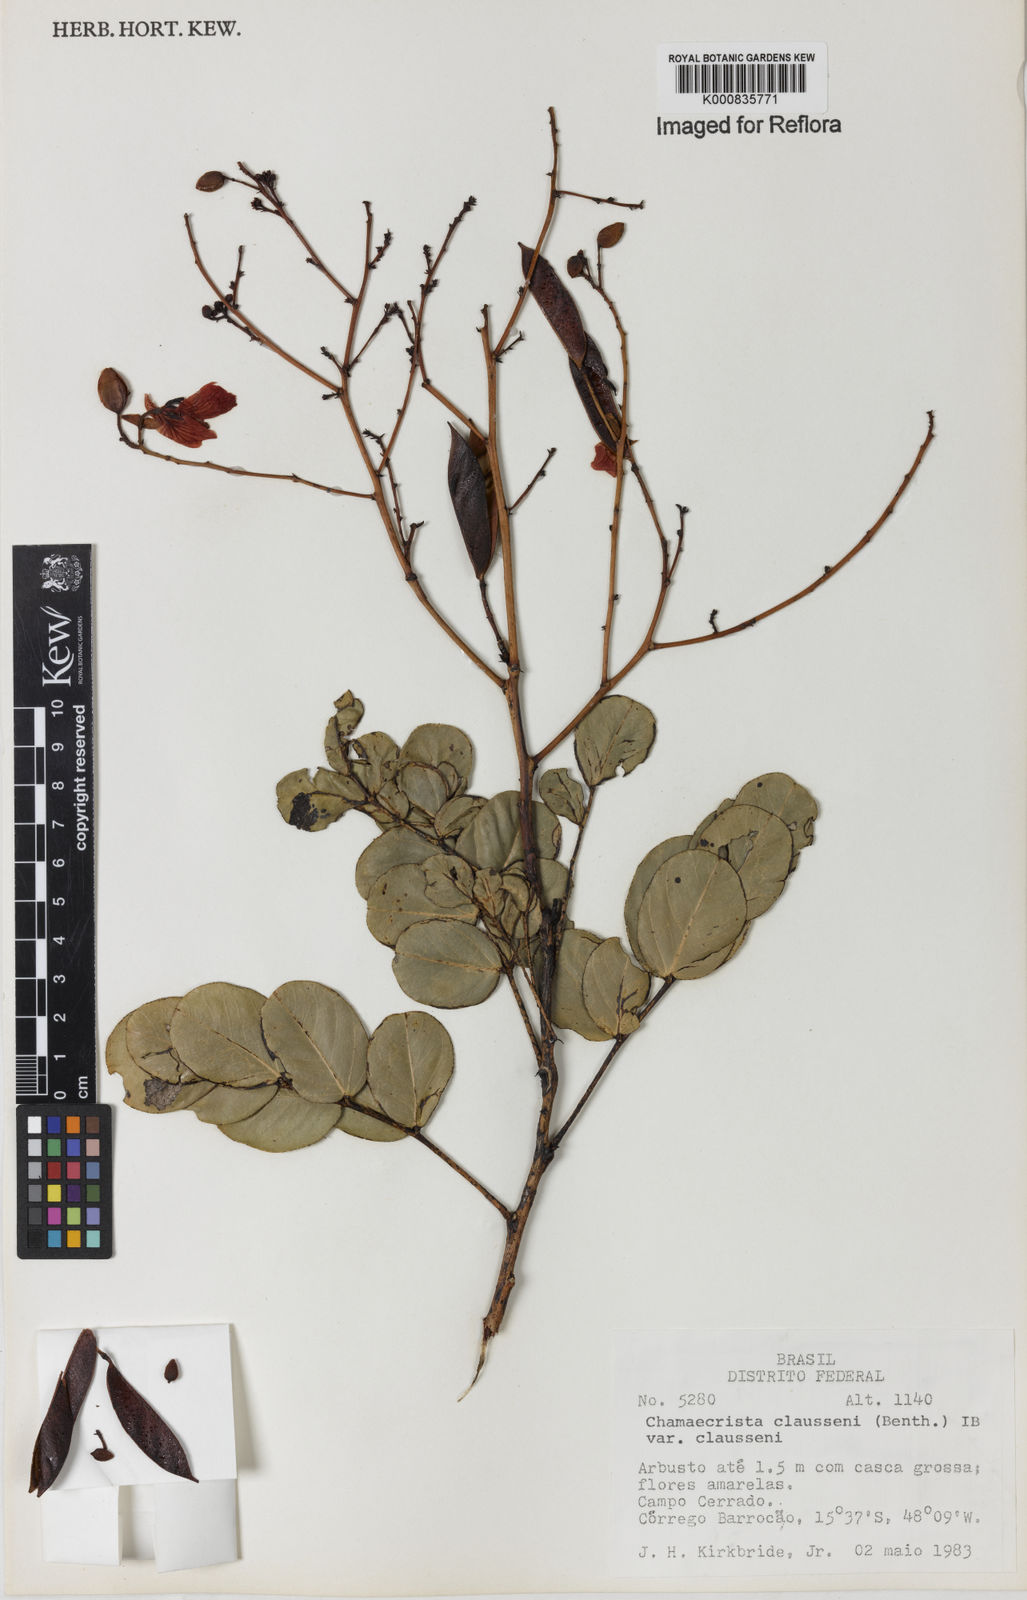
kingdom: Plantae
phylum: Tracheophyta
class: Magnoliopsida
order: Fabales
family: Fabaceae
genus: Chamaecrista
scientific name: Chamaecrista claussenii
